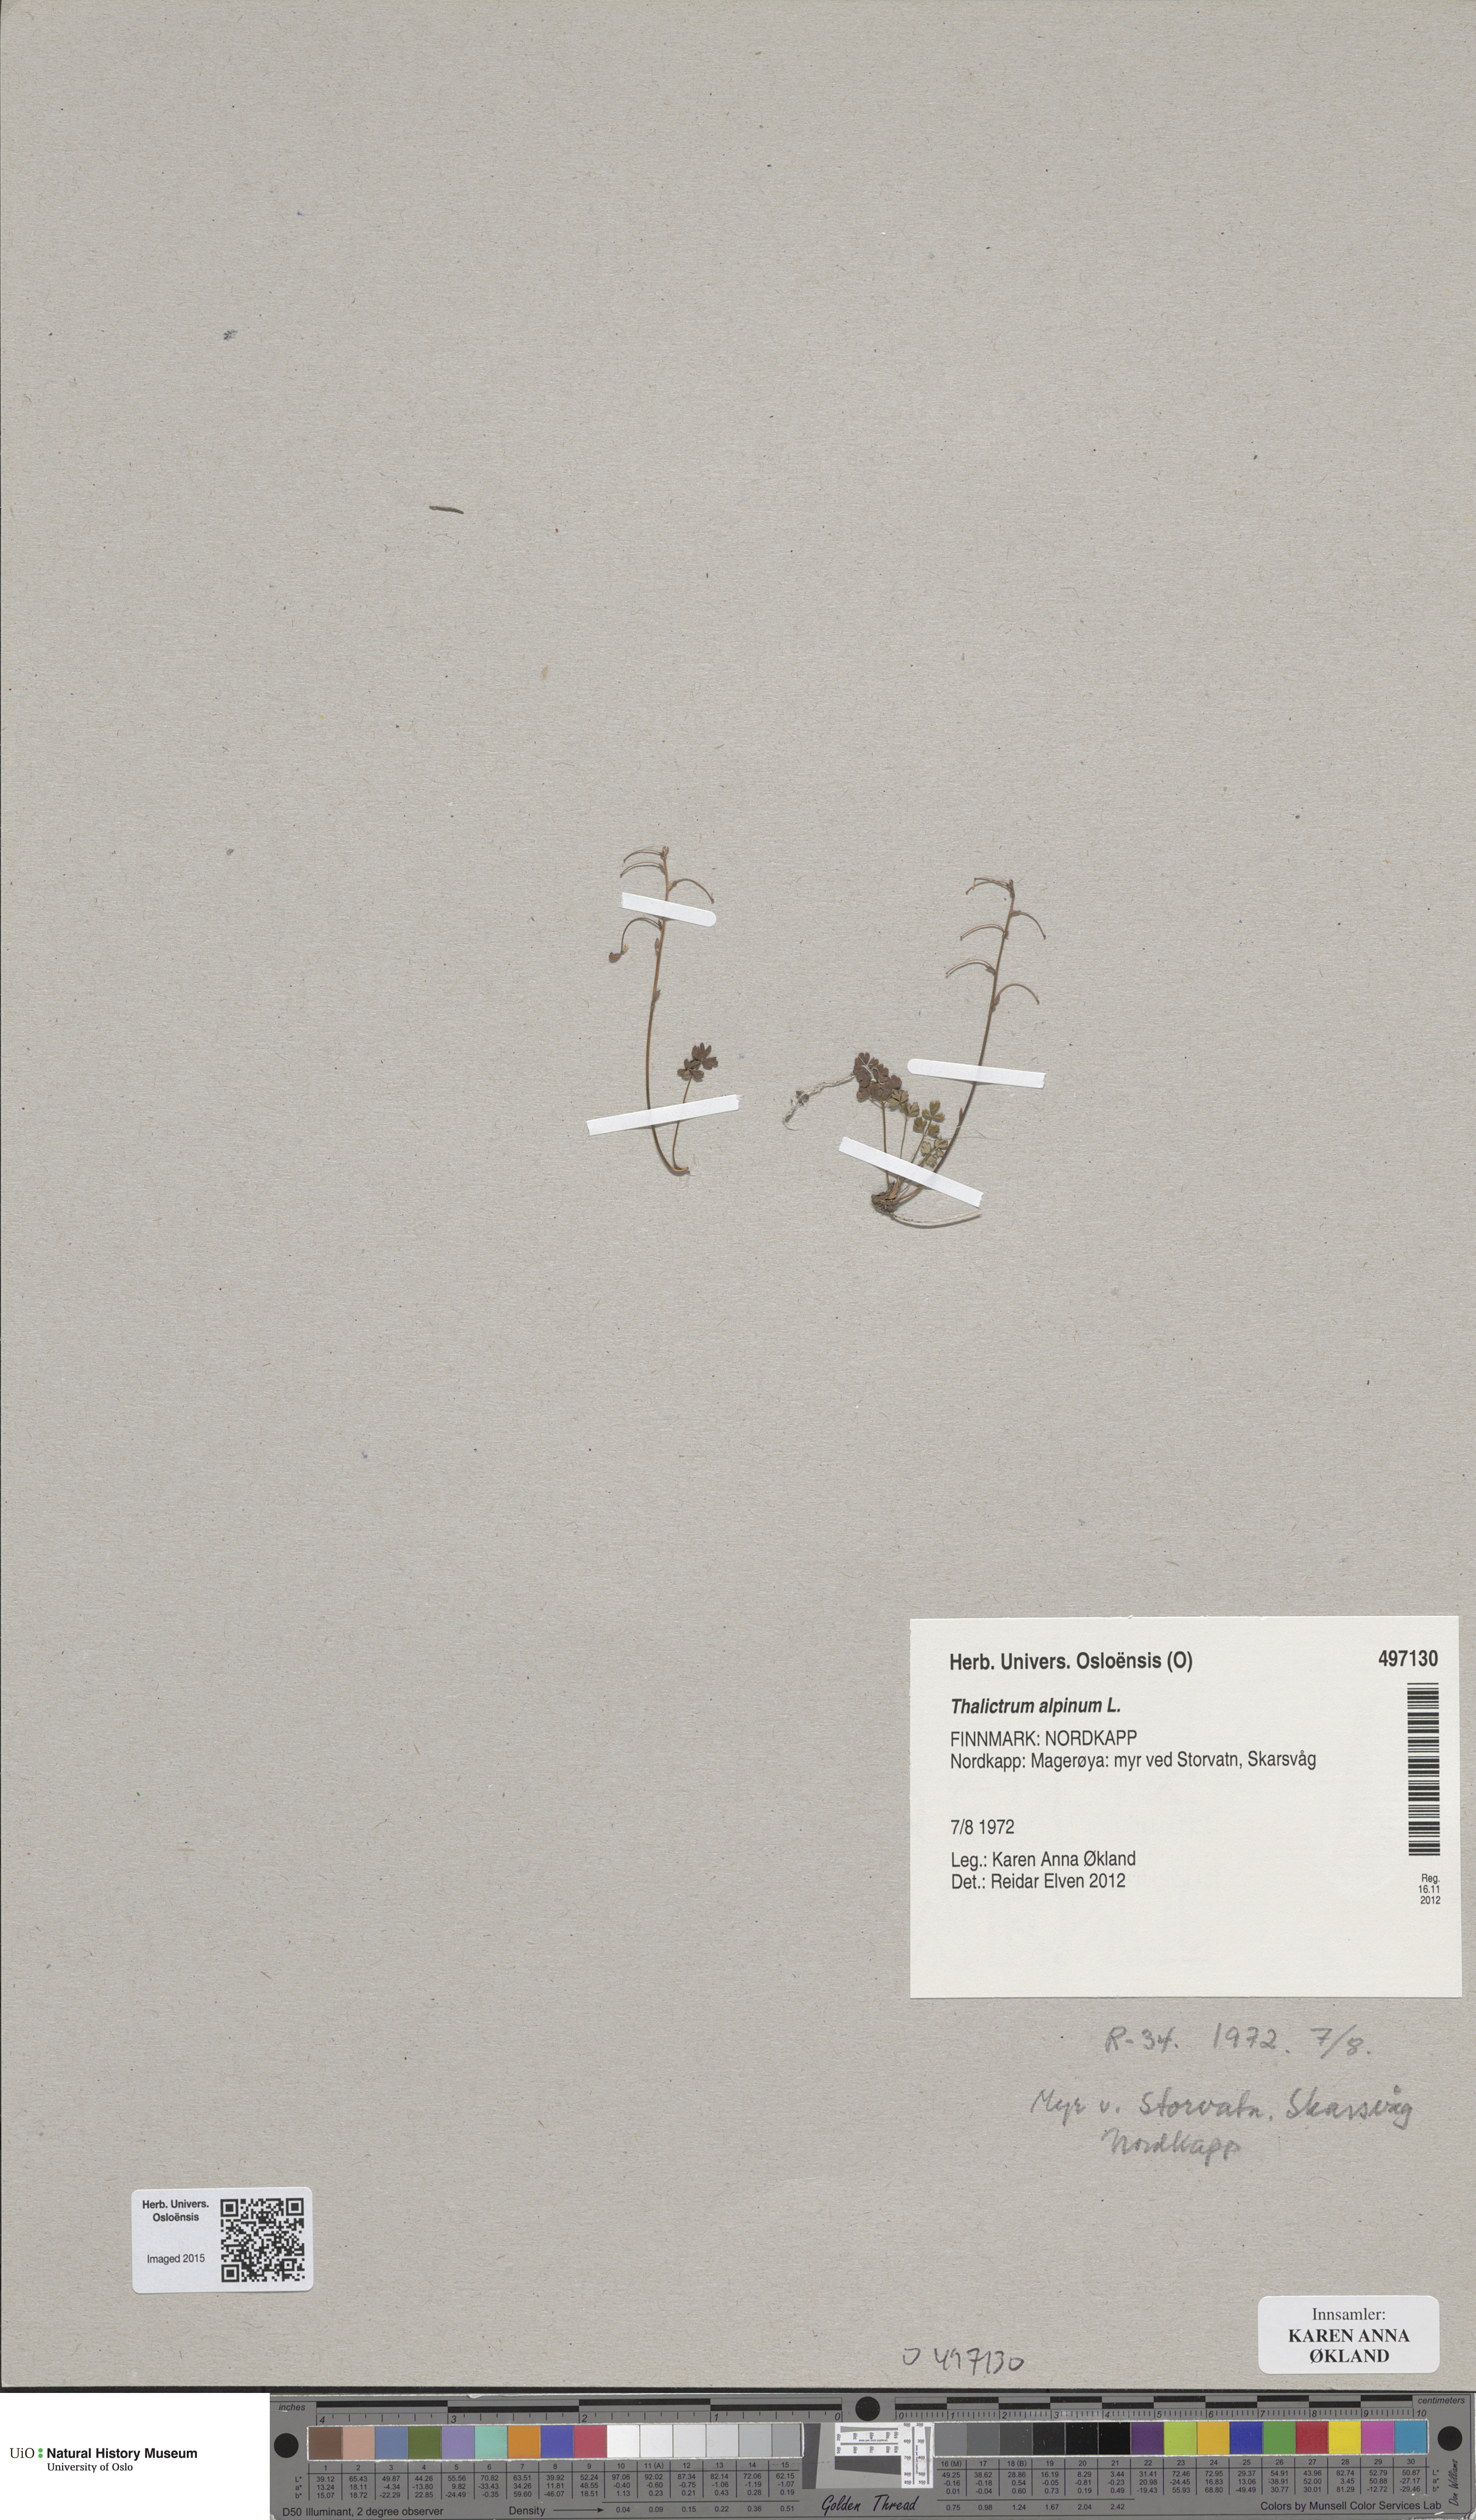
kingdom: Plantae
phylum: Tracheophyta
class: Magnoliopsida
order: Ranunculales
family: Ranunculaceae
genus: Thalictrum
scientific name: Thalictrum alpinum
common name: Alpine meadow-rue
